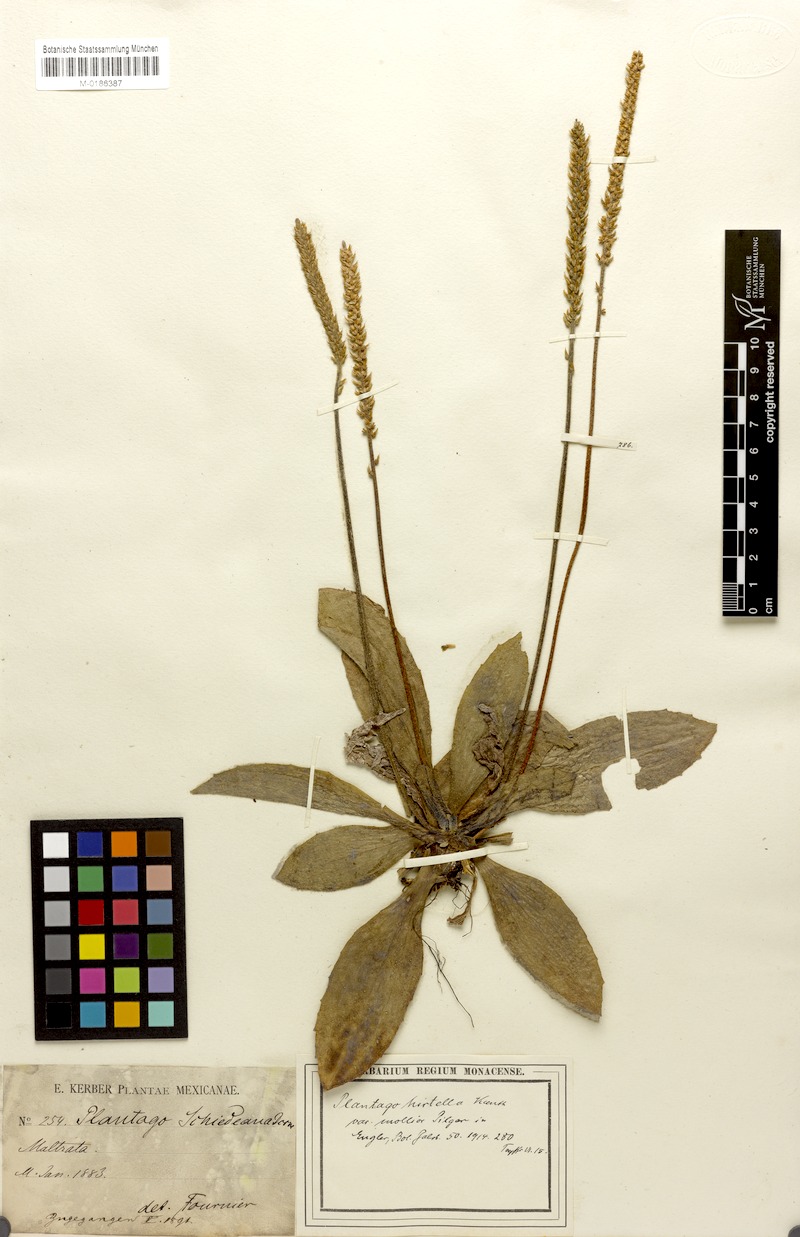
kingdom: Plantae
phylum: Tracheophyta
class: Magnoliopsida
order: Lamiales
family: Plantaginaceae
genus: Plantago
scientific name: Plantago australis
